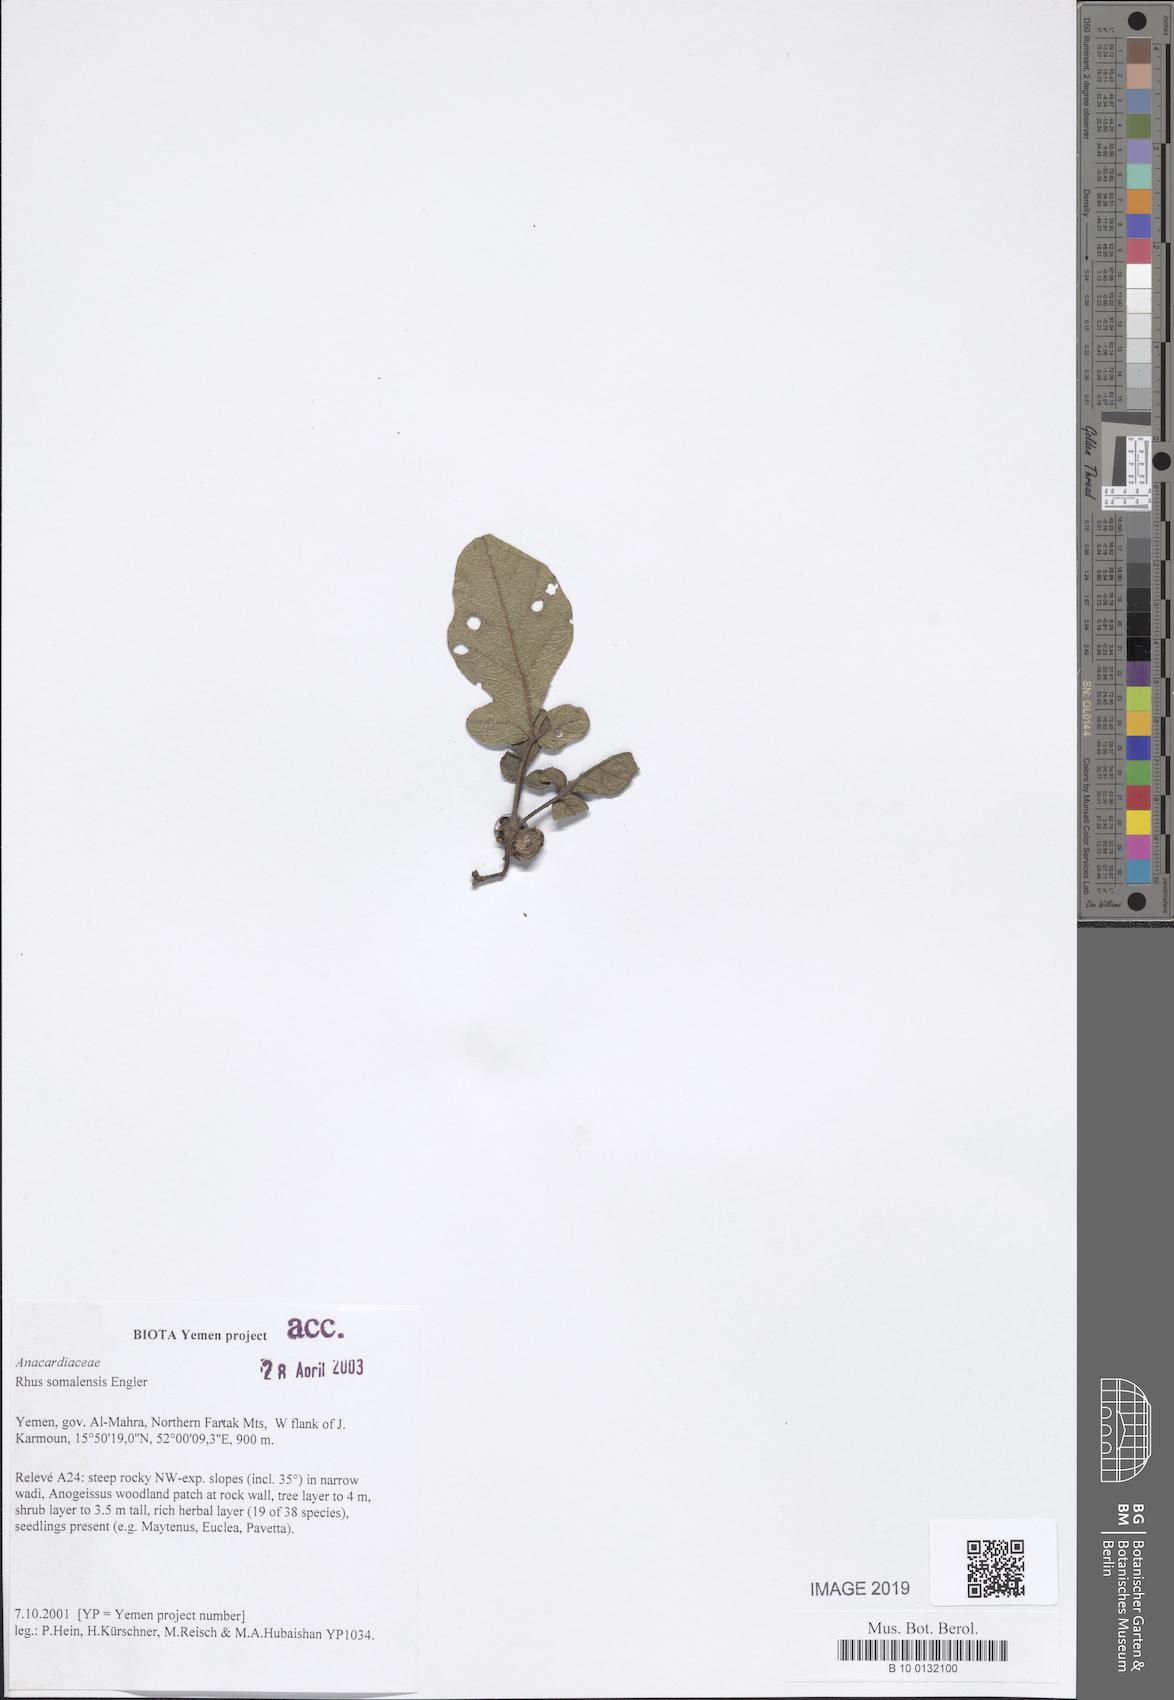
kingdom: Plantae
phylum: Tracheophyta
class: Magnoliopsida
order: Sapindales
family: Anacardiaceae
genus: Searsia
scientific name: Searsia somalensis
